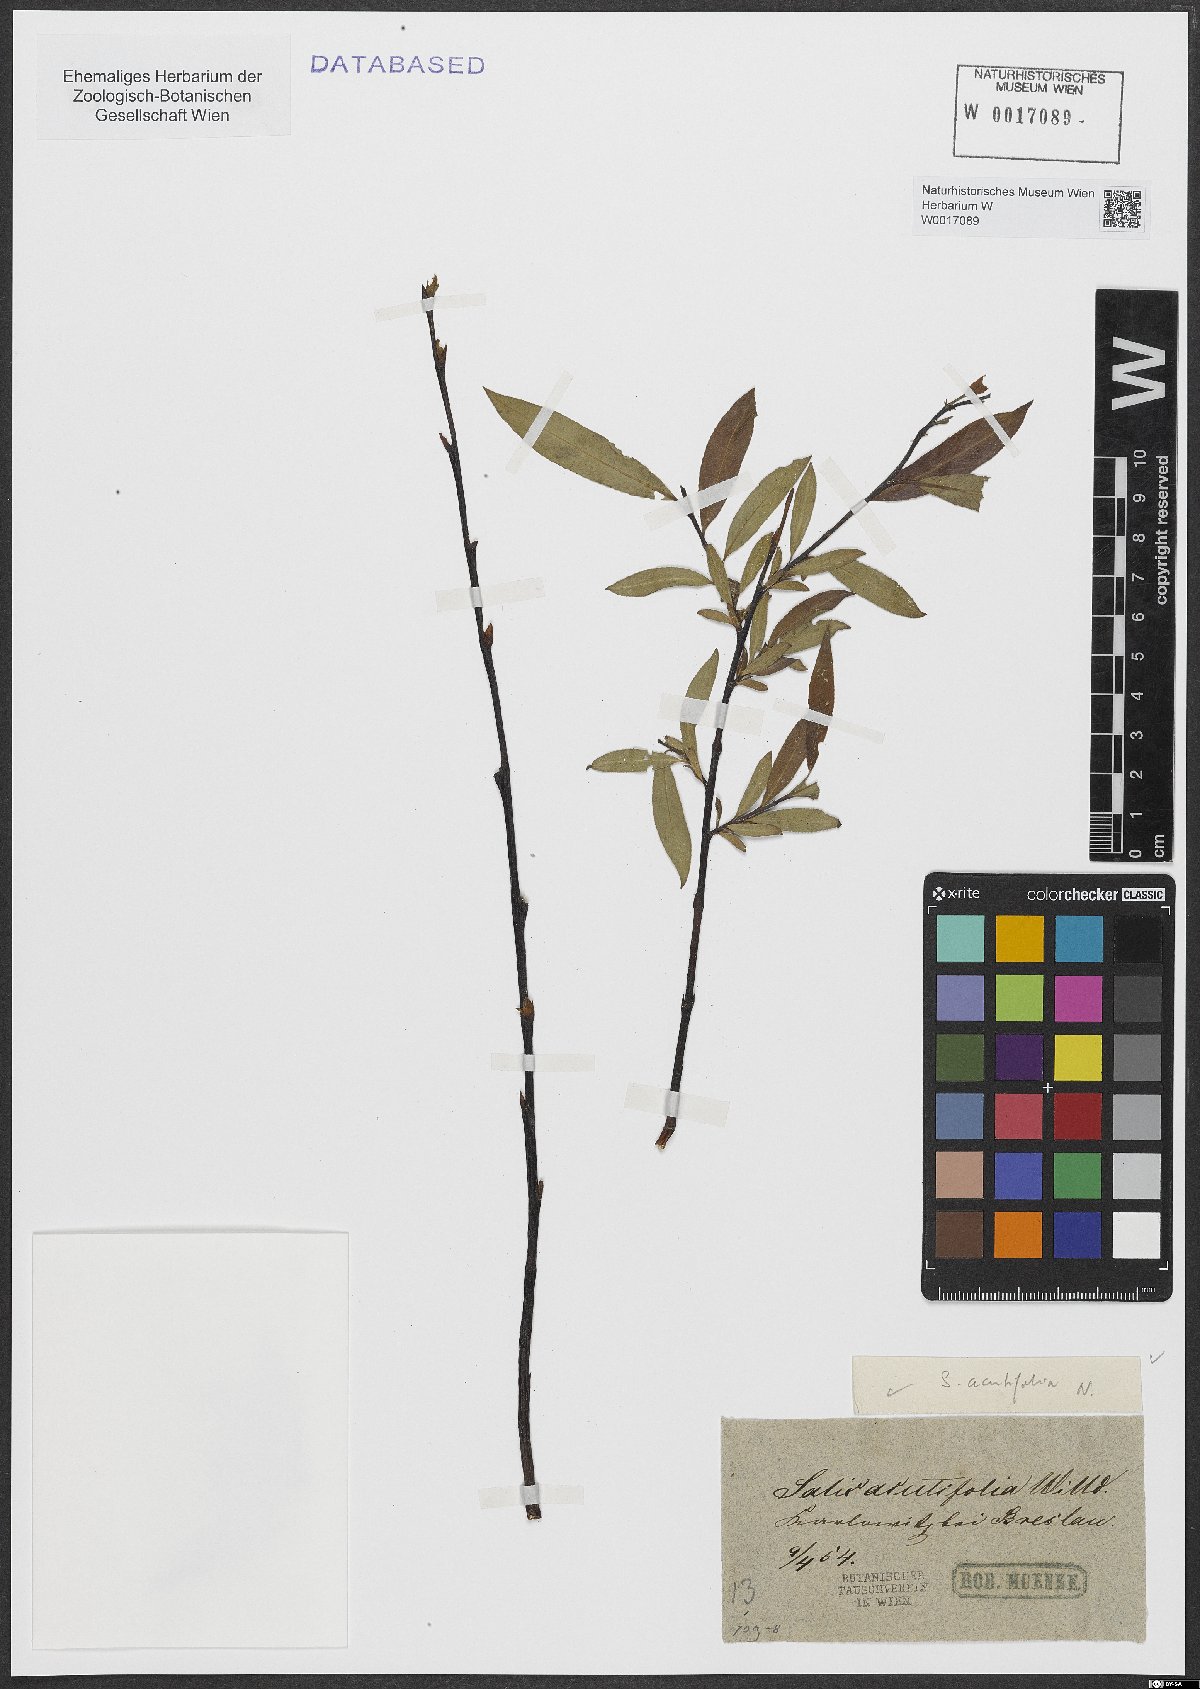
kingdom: Plantae
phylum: Tracheophyta
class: Magnoliopsida
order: Malpighiales
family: Salicaceae
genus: Salix
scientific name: Salix acutifolia
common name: Siberian violet-willow
